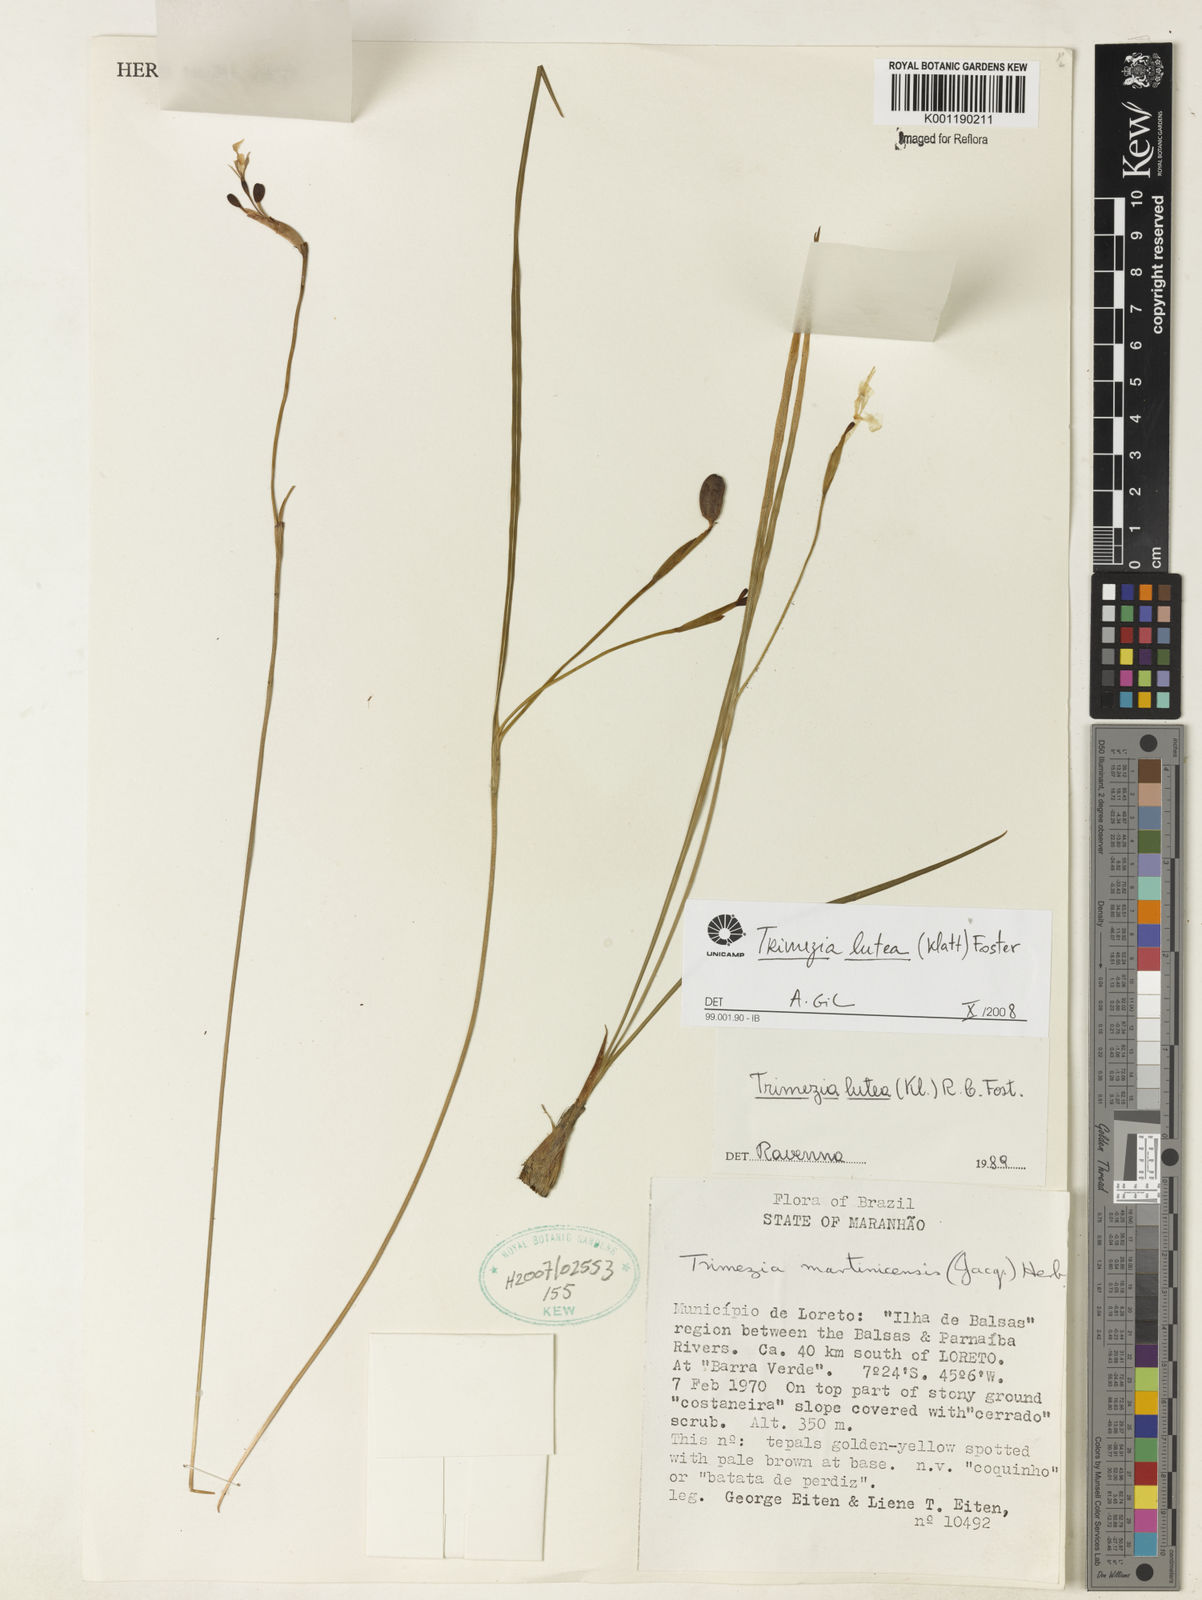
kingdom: Plantae
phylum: Tracheophyta
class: Liliopsida
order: Asparagales
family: Iridaceae
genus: Trimezia
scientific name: Trimezia longifolia
